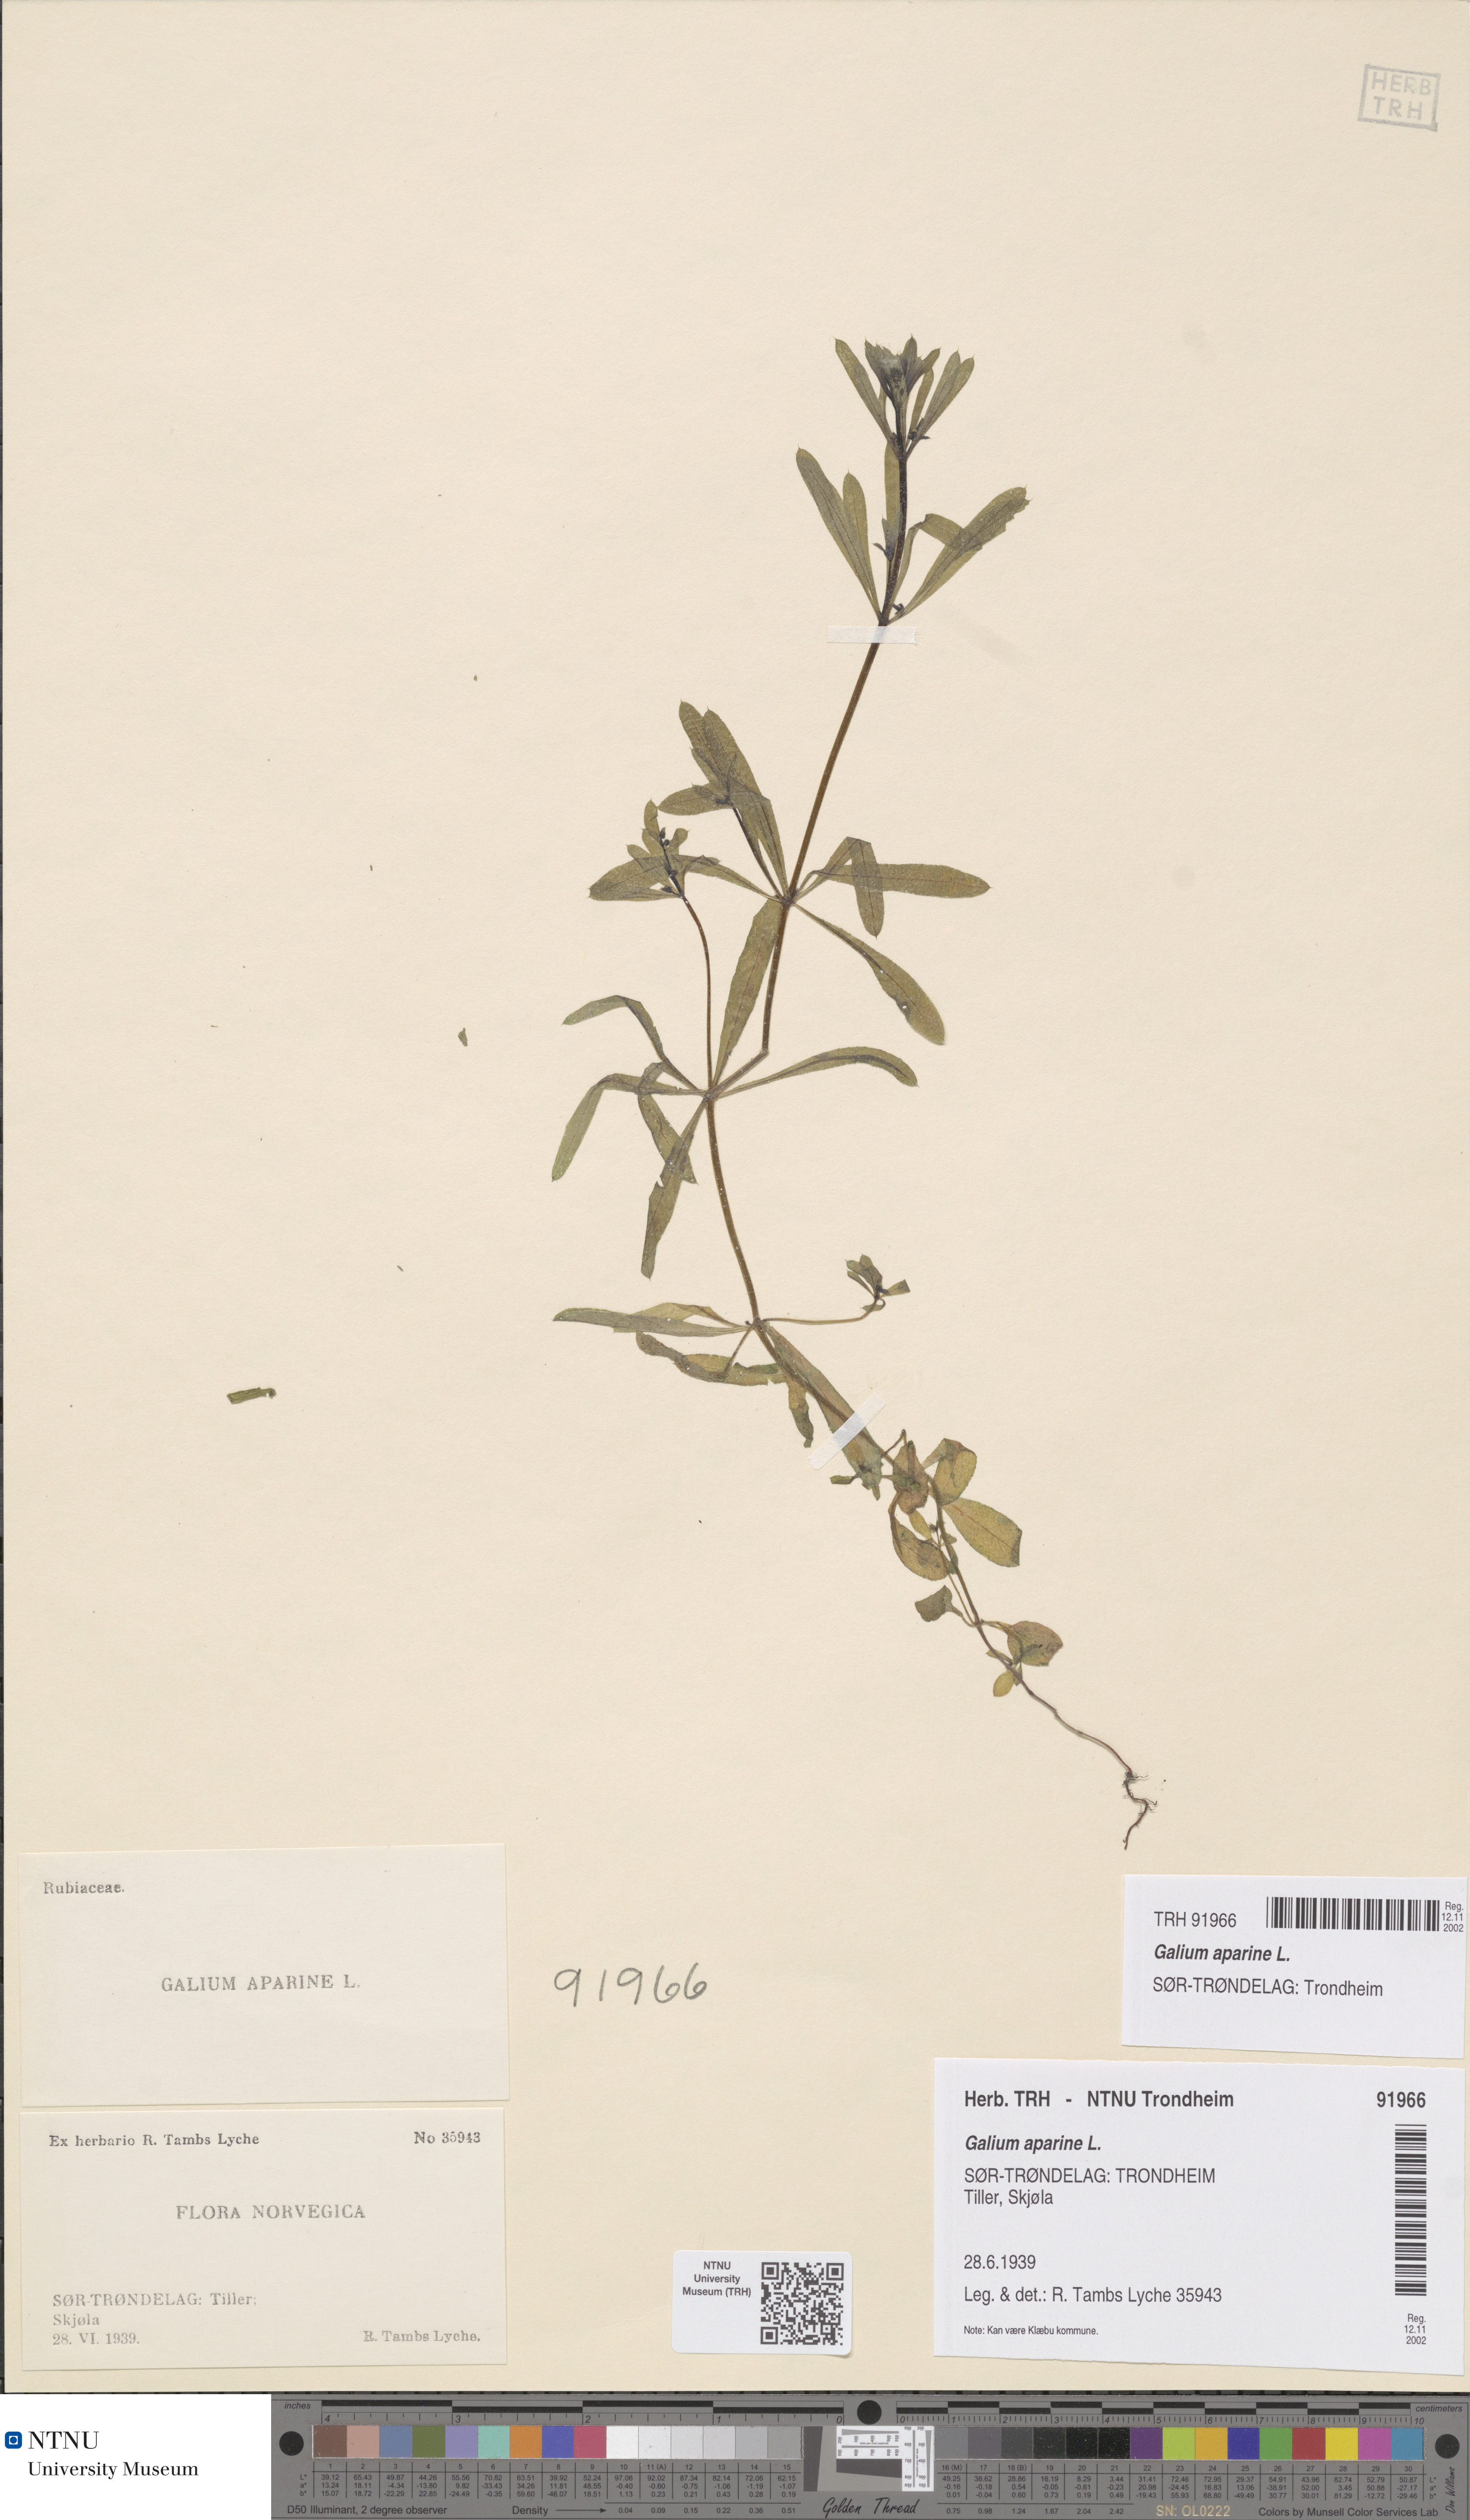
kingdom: Plantae
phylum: Tracheophyta
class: Magnoliopsida
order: Gentianales
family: Rubiaceae
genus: Galium
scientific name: Galium aparine
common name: Cleavers
